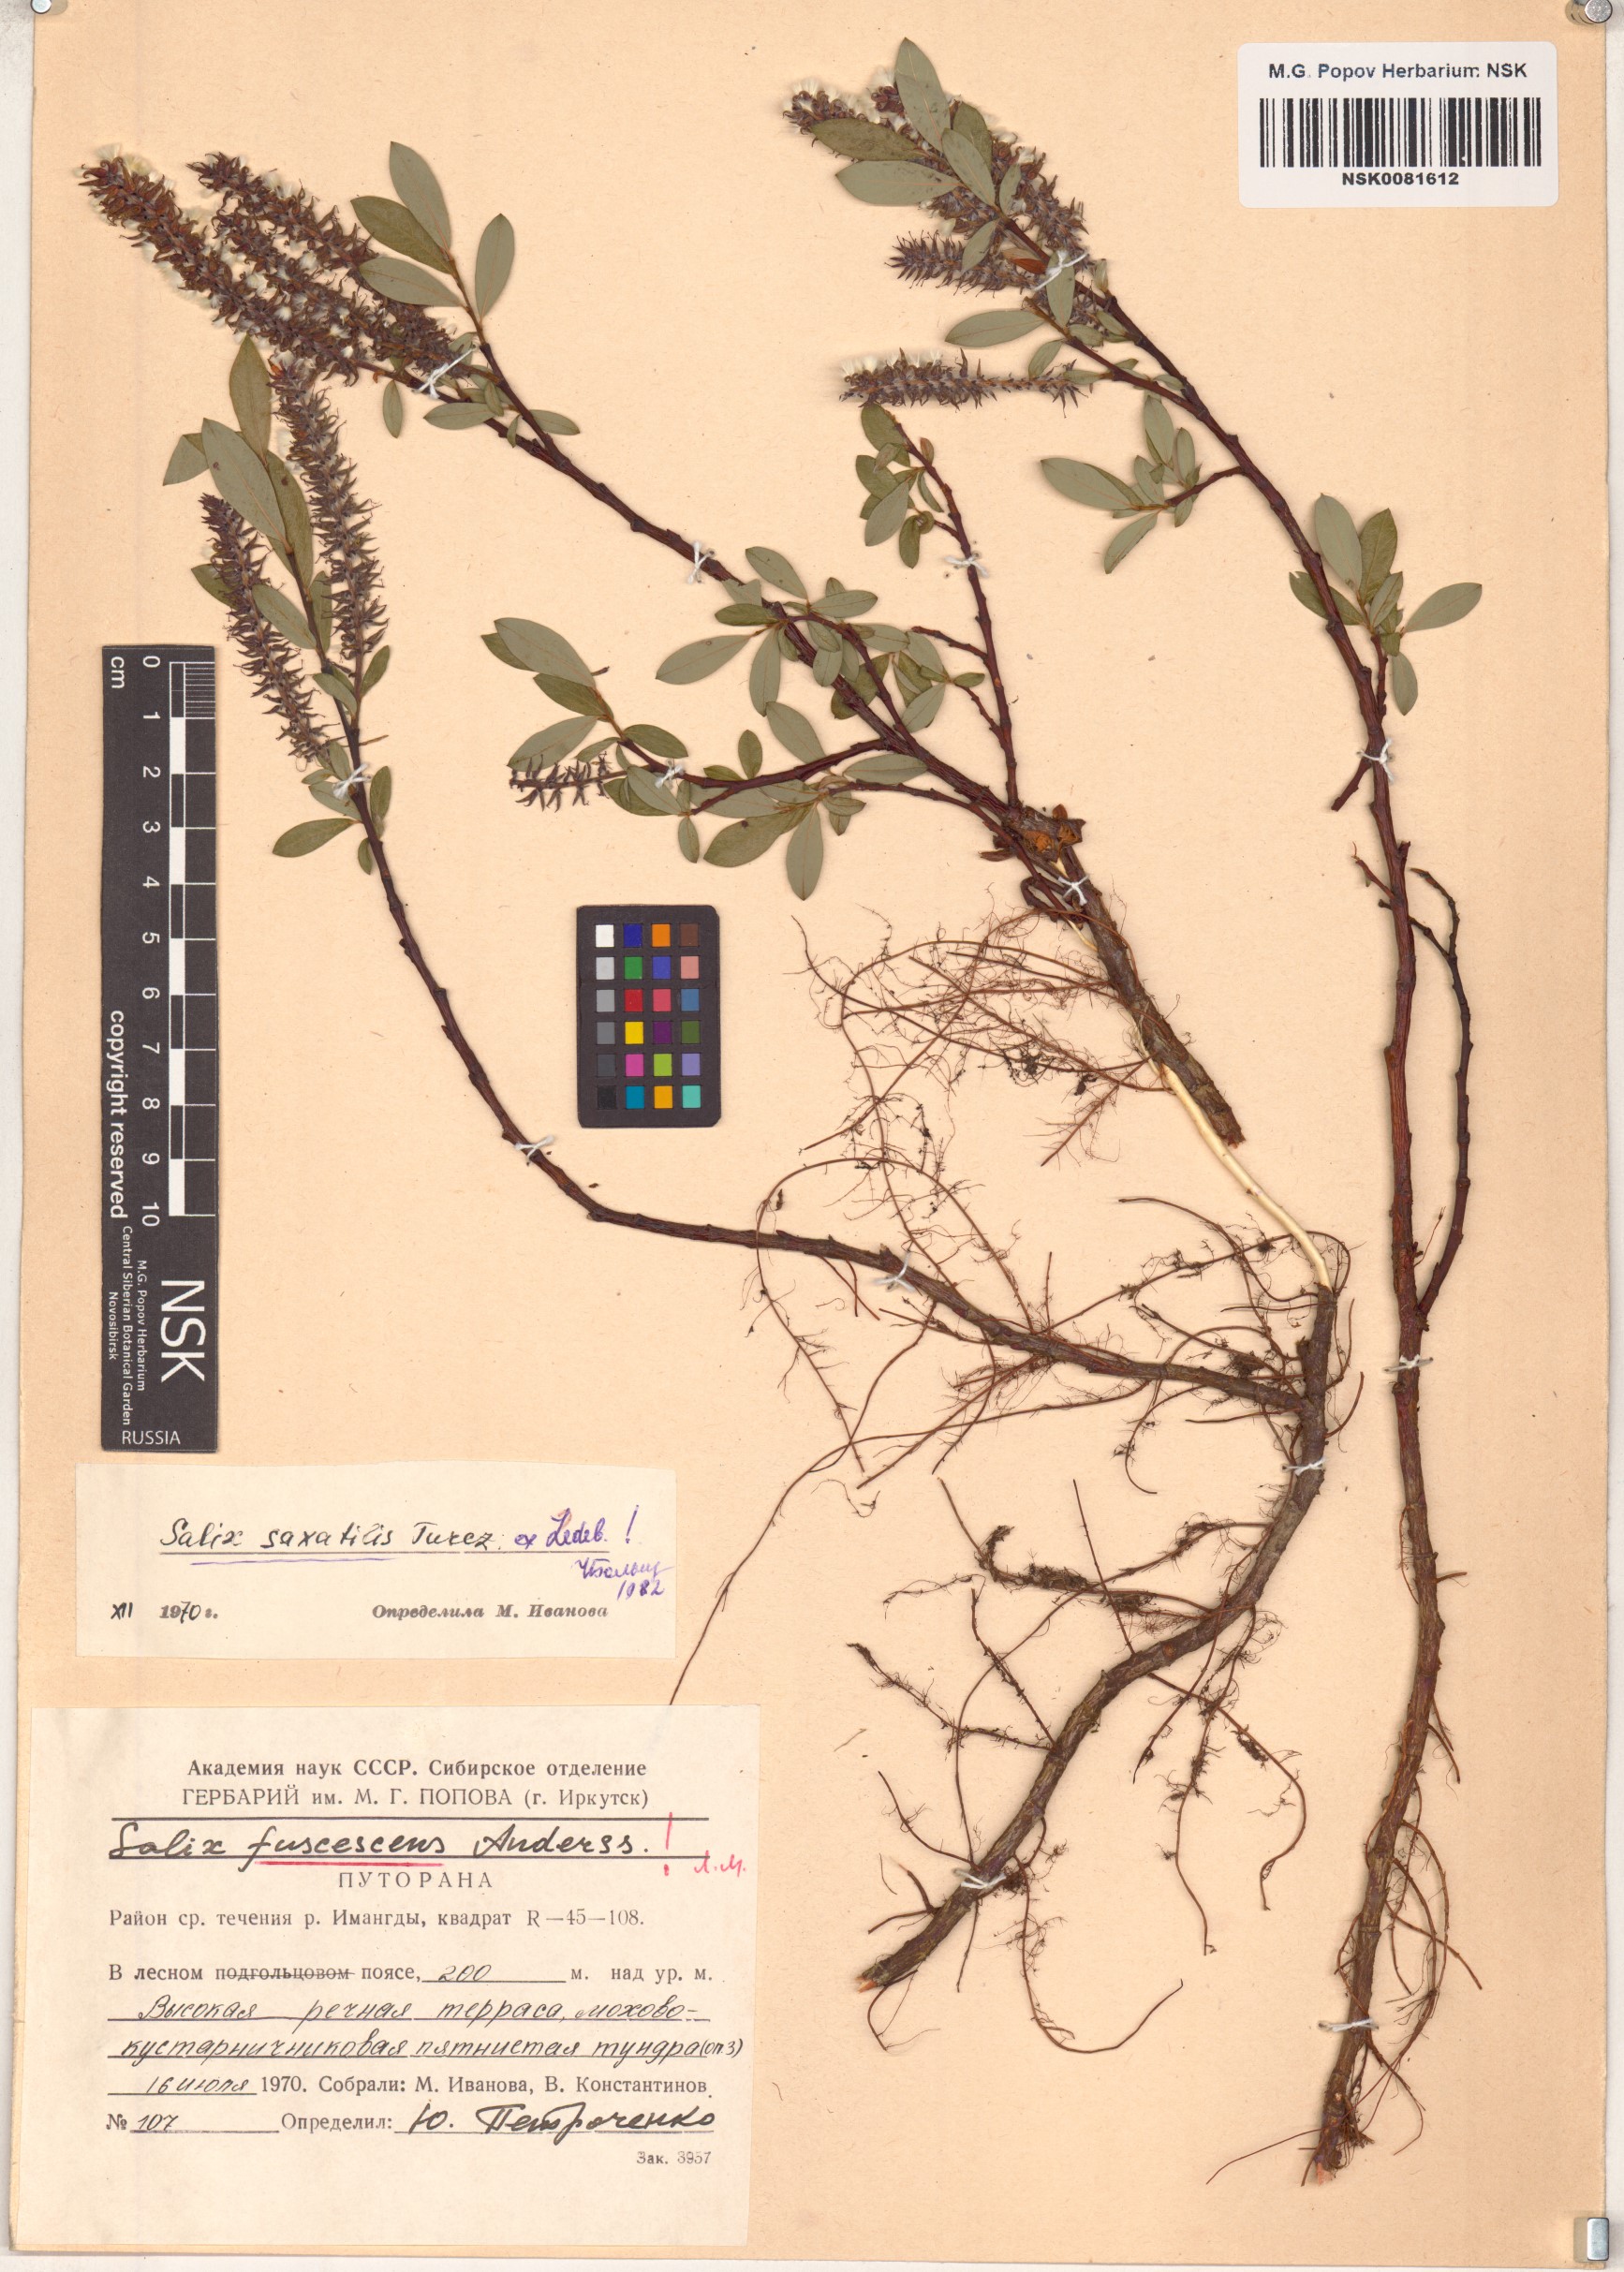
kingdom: Plantae
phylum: Tracheophyta
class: Magnoliopsida
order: Malpighiales
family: Salicaceae
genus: Salix
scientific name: Salix saxatilis
